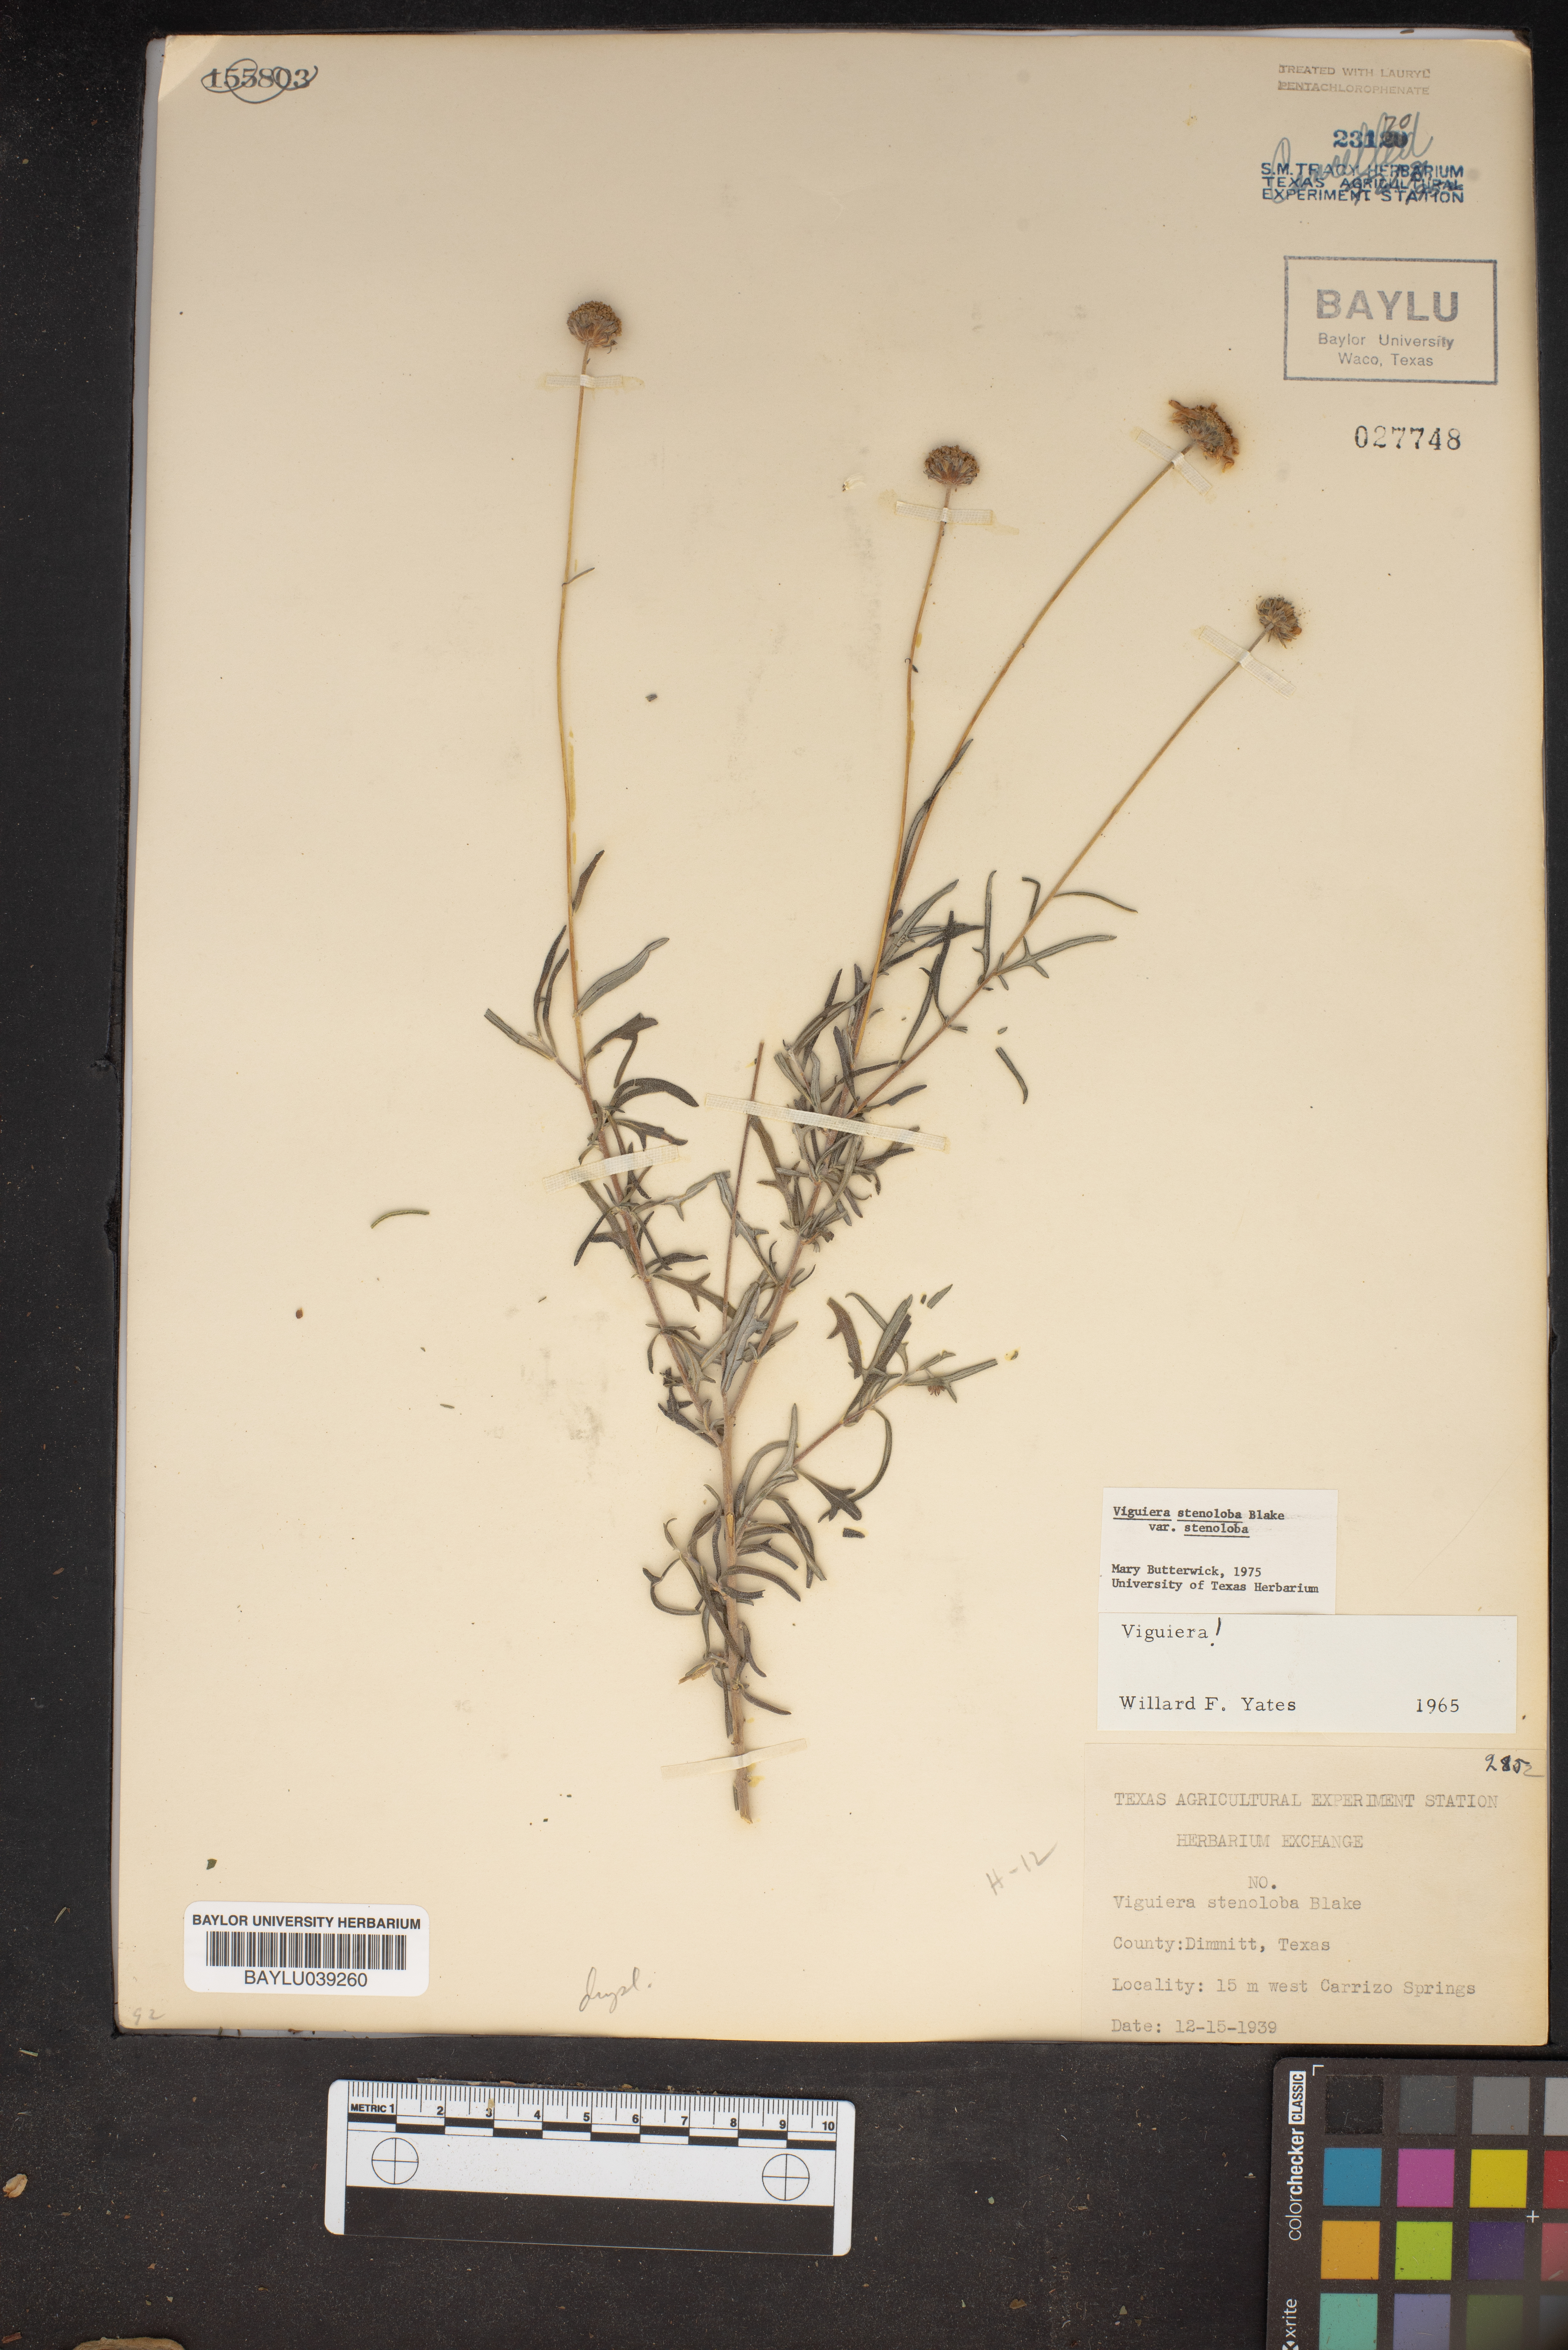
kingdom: Plantae
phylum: Tracheophyta
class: Magnoliopsida
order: Asterales
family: Asteraceae
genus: Sidneya
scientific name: Sidneya tenuifolia
